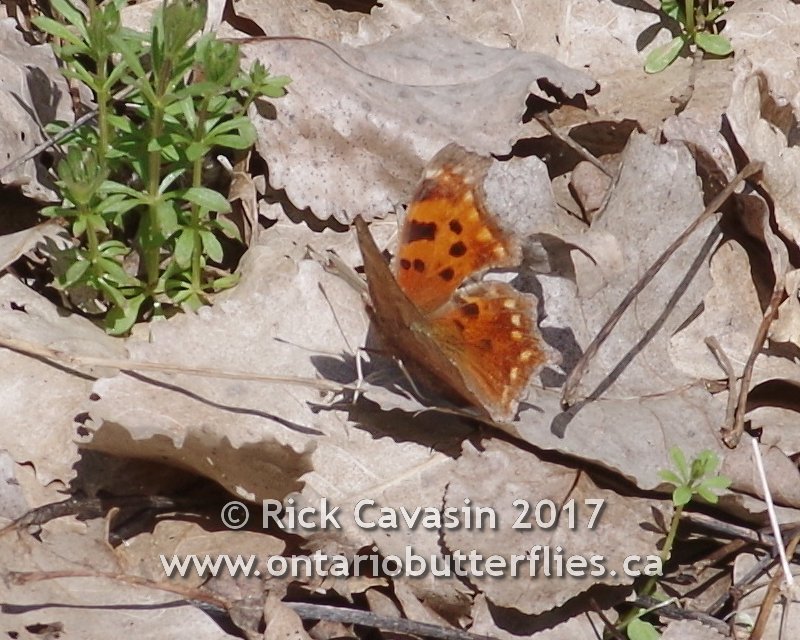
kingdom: Animalia
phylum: Arthropoda
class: Insecta
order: Lepidoptera
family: Nymphalidae
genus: Polygonia
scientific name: Polygonia comma
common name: Eastern Comma
